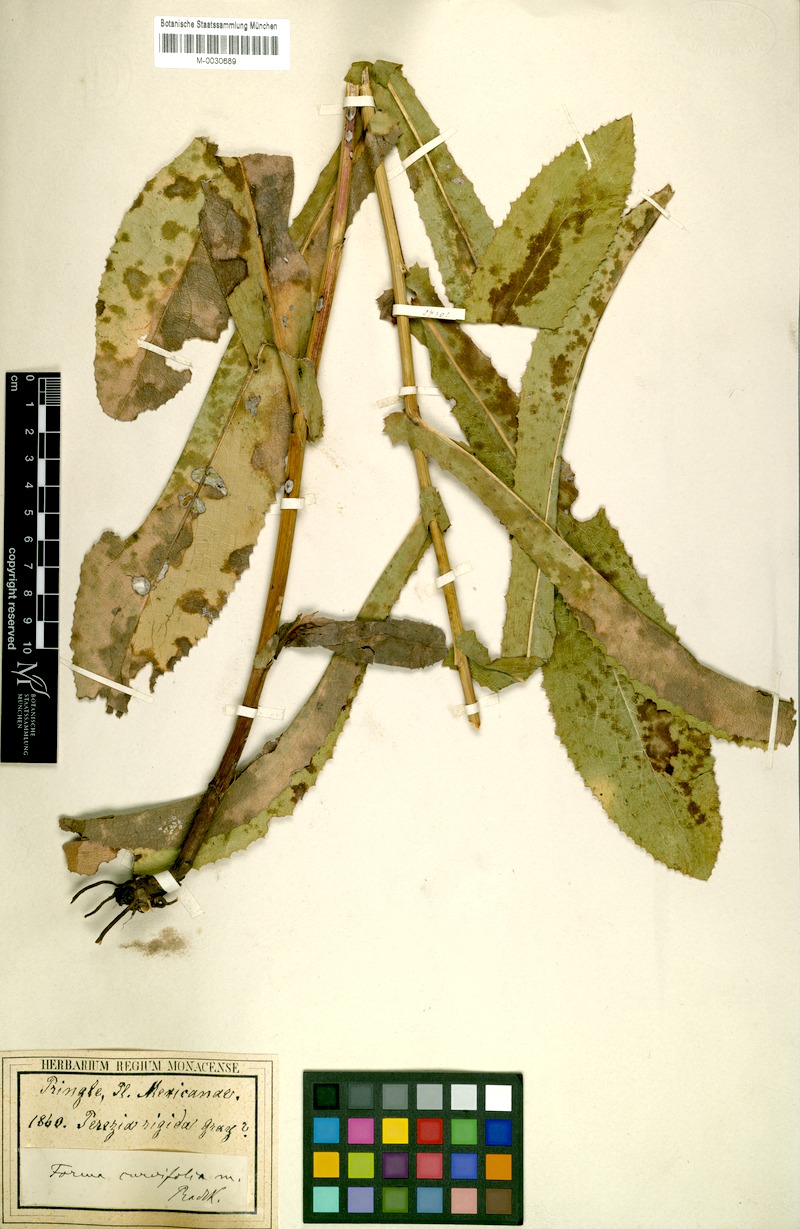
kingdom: Plantae
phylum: Tracheophyta
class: Magnoliopsida
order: Asterales
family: Asteraceae
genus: Acourtia
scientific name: Acourtia fruticosa
